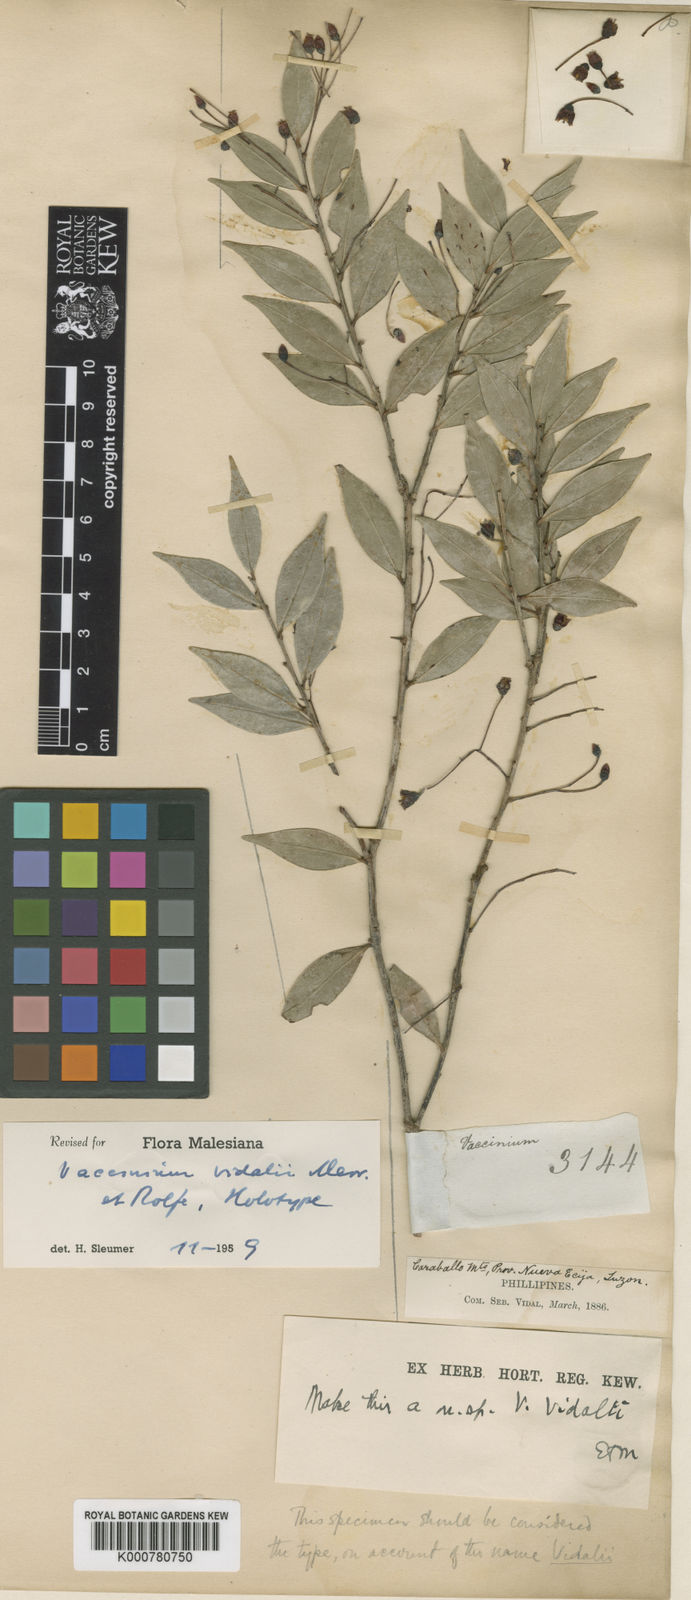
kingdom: Plantae
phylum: Tracheophyta
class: Magnoliopsida
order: Ericales
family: Ericaceae
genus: Vaccinium
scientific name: Vaccinium vidalii
